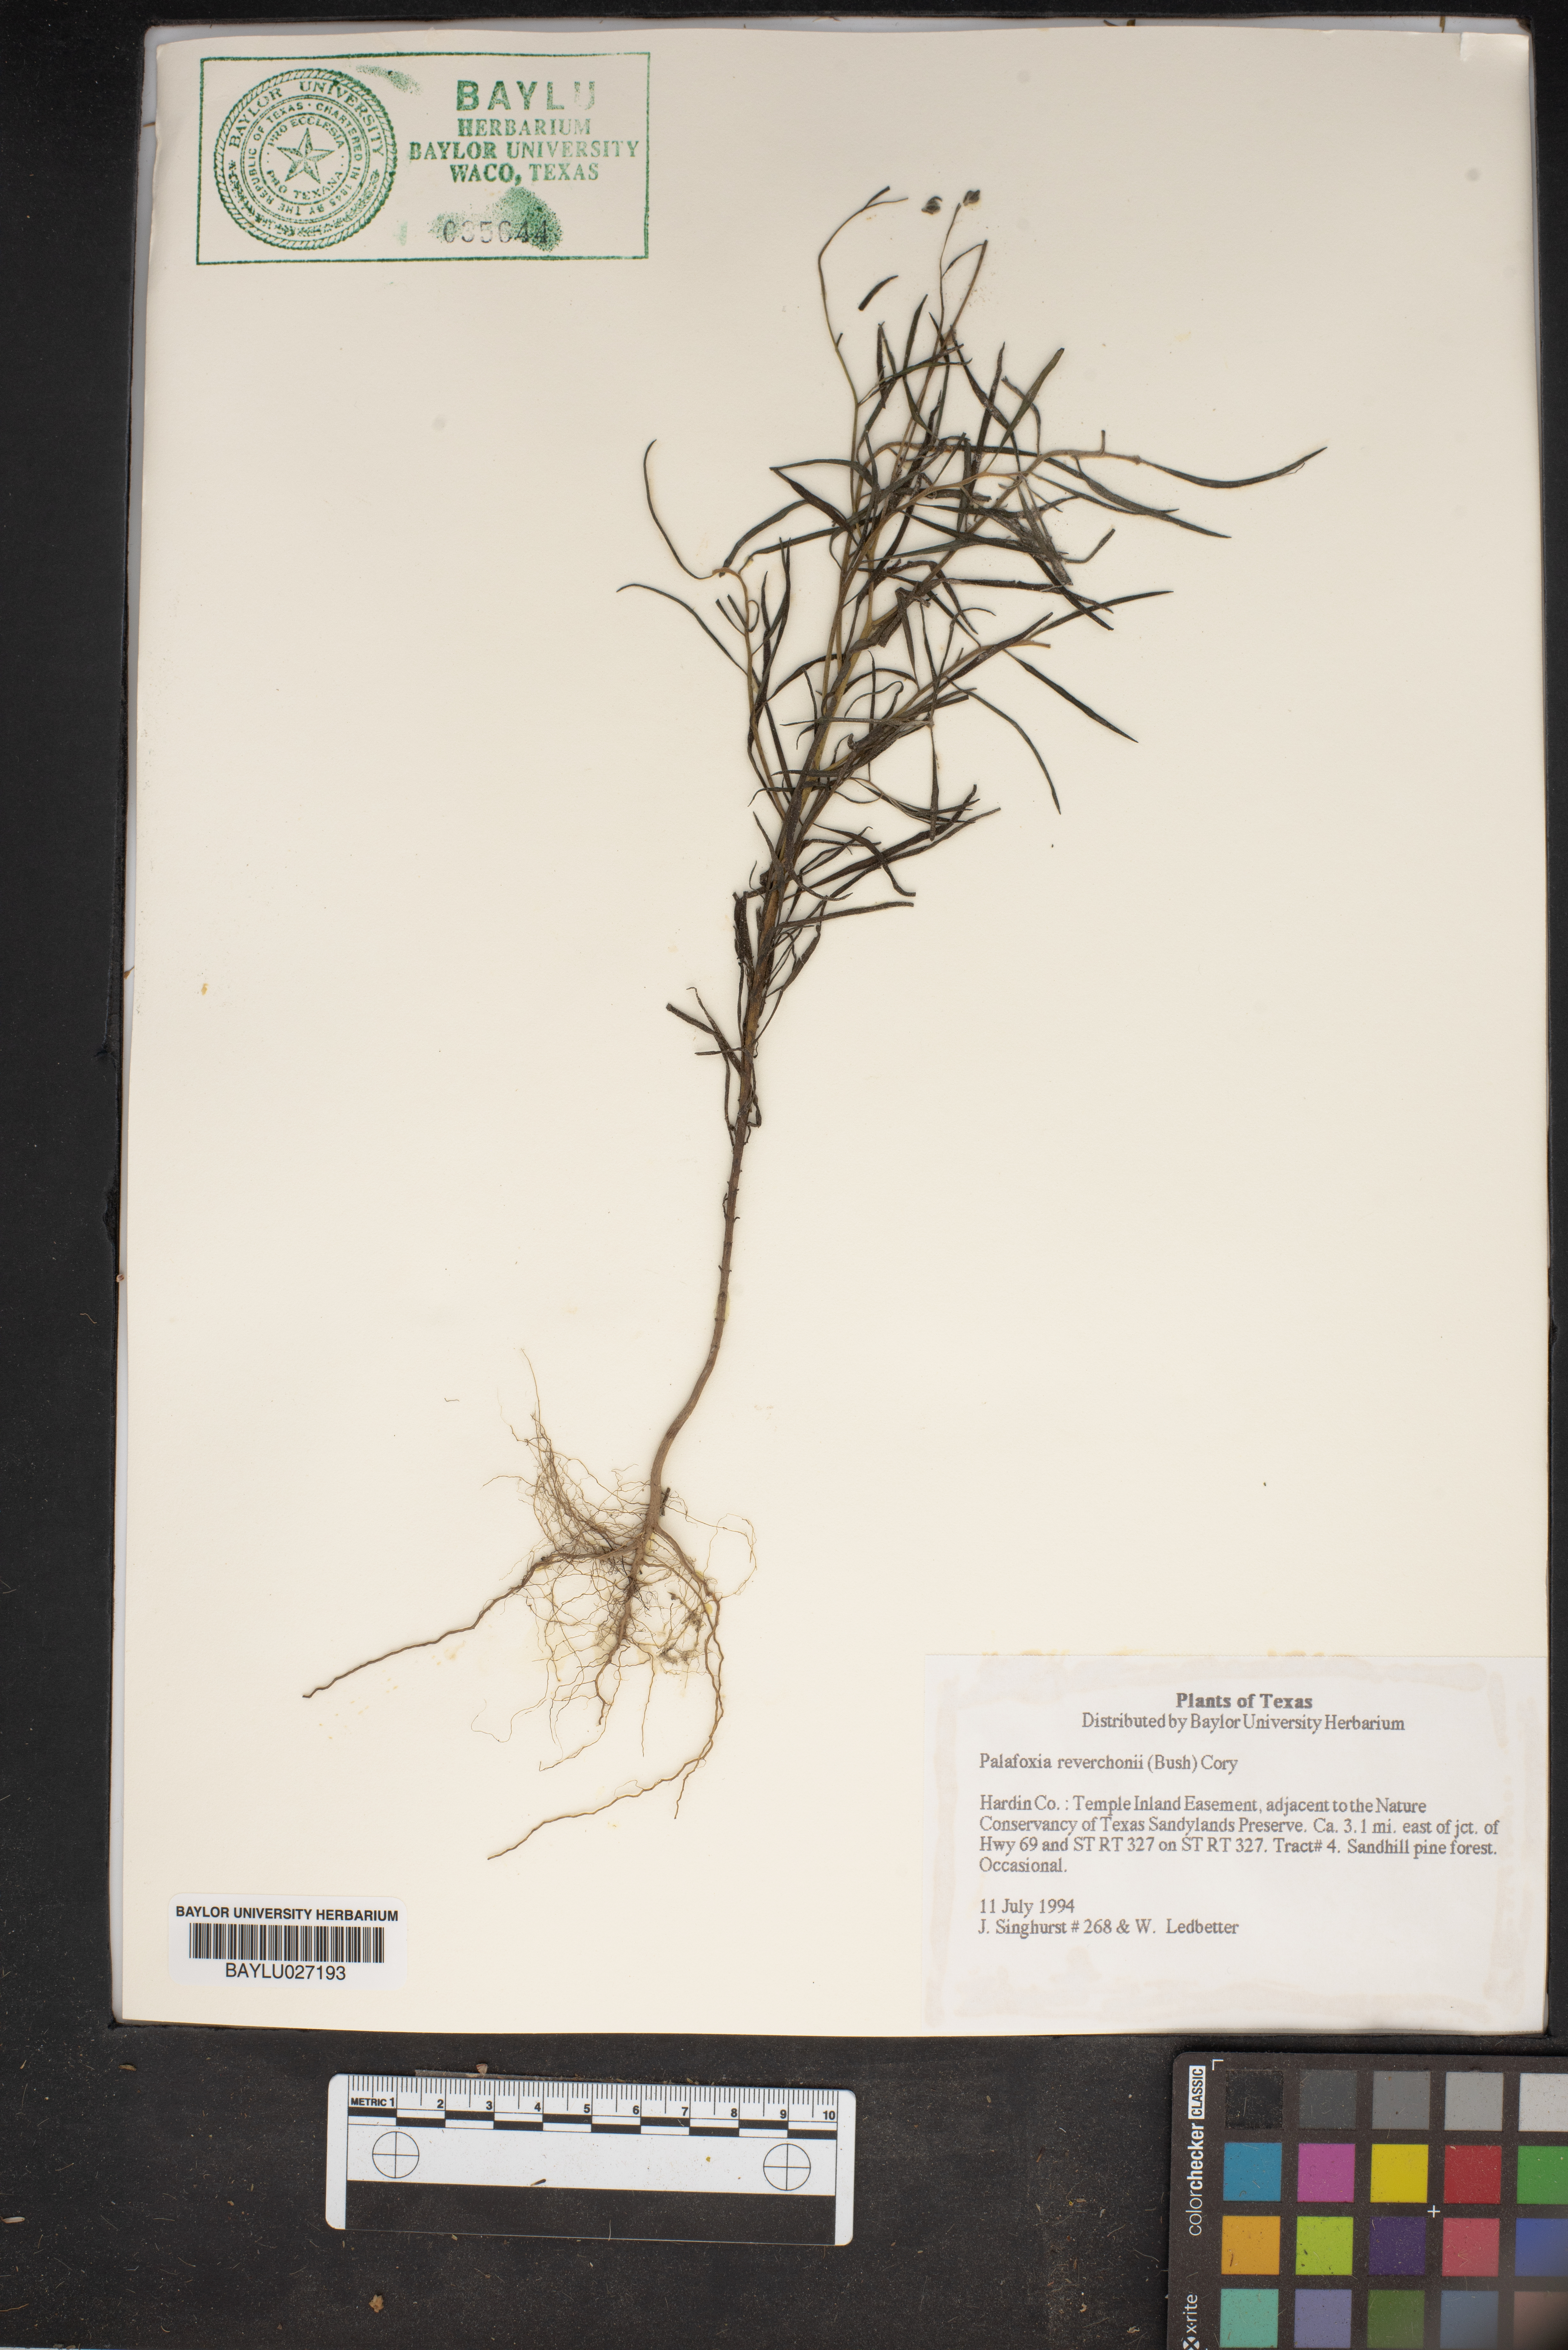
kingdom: Plantae
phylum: Tracheophyta
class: Magnoliopsida
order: Asterales
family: Asteraceae
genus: Palafoxia
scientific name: Palafoxia reverchonii
